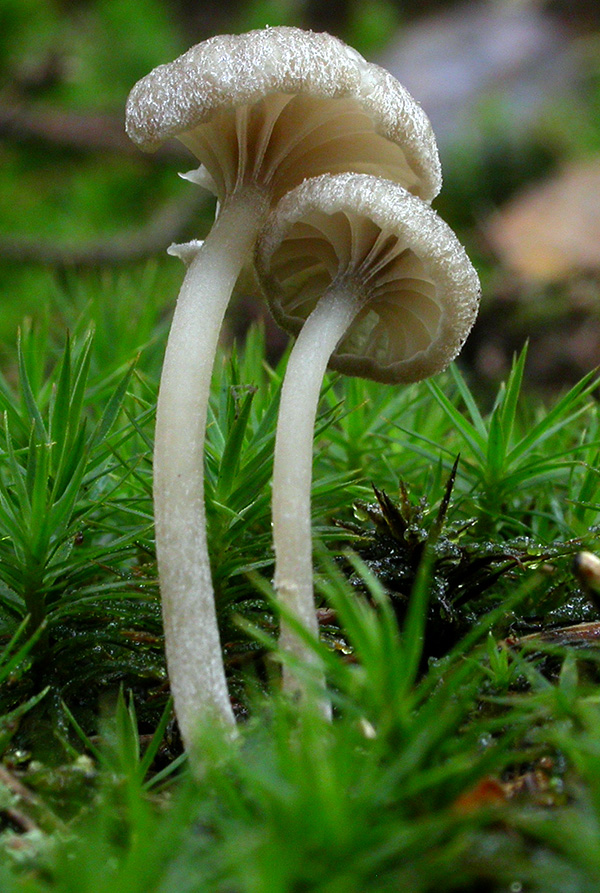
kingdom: Fungi
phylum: Basidiomycota
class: Agaricomycetes
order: Agaricales
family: Entolomataceae
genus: Entoloma
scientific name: Entoloma rhodocylix
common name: fjernbladet rødblad
